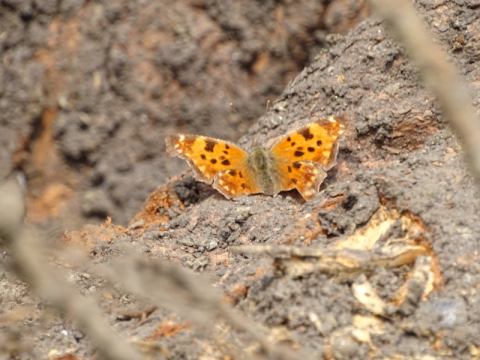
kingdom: Animalia
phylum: Arthropoda
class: Insecta
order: Lepidoptera
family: Nymphalidae
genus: Polygonia
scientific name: Polygonia comma
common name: Eastern Comma
